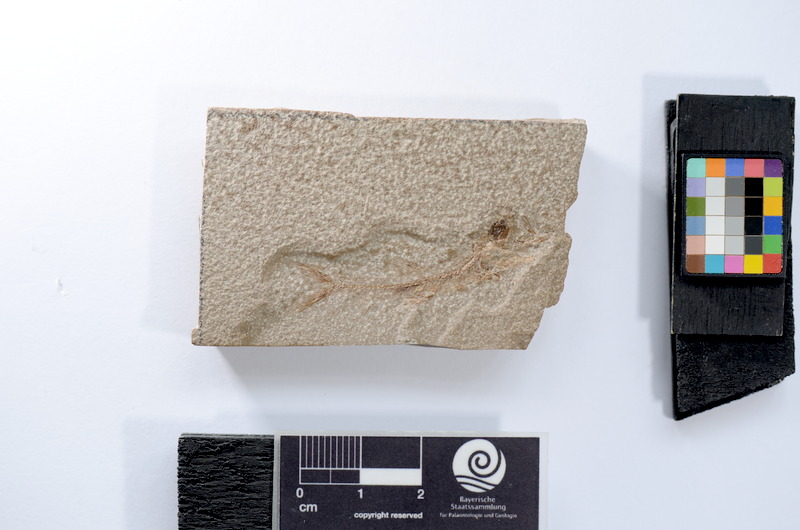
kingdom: Animalia
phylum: Chordata
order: Elopiformes
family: Anaethalionidae
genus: Anaethalion
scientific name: Anaethalion
